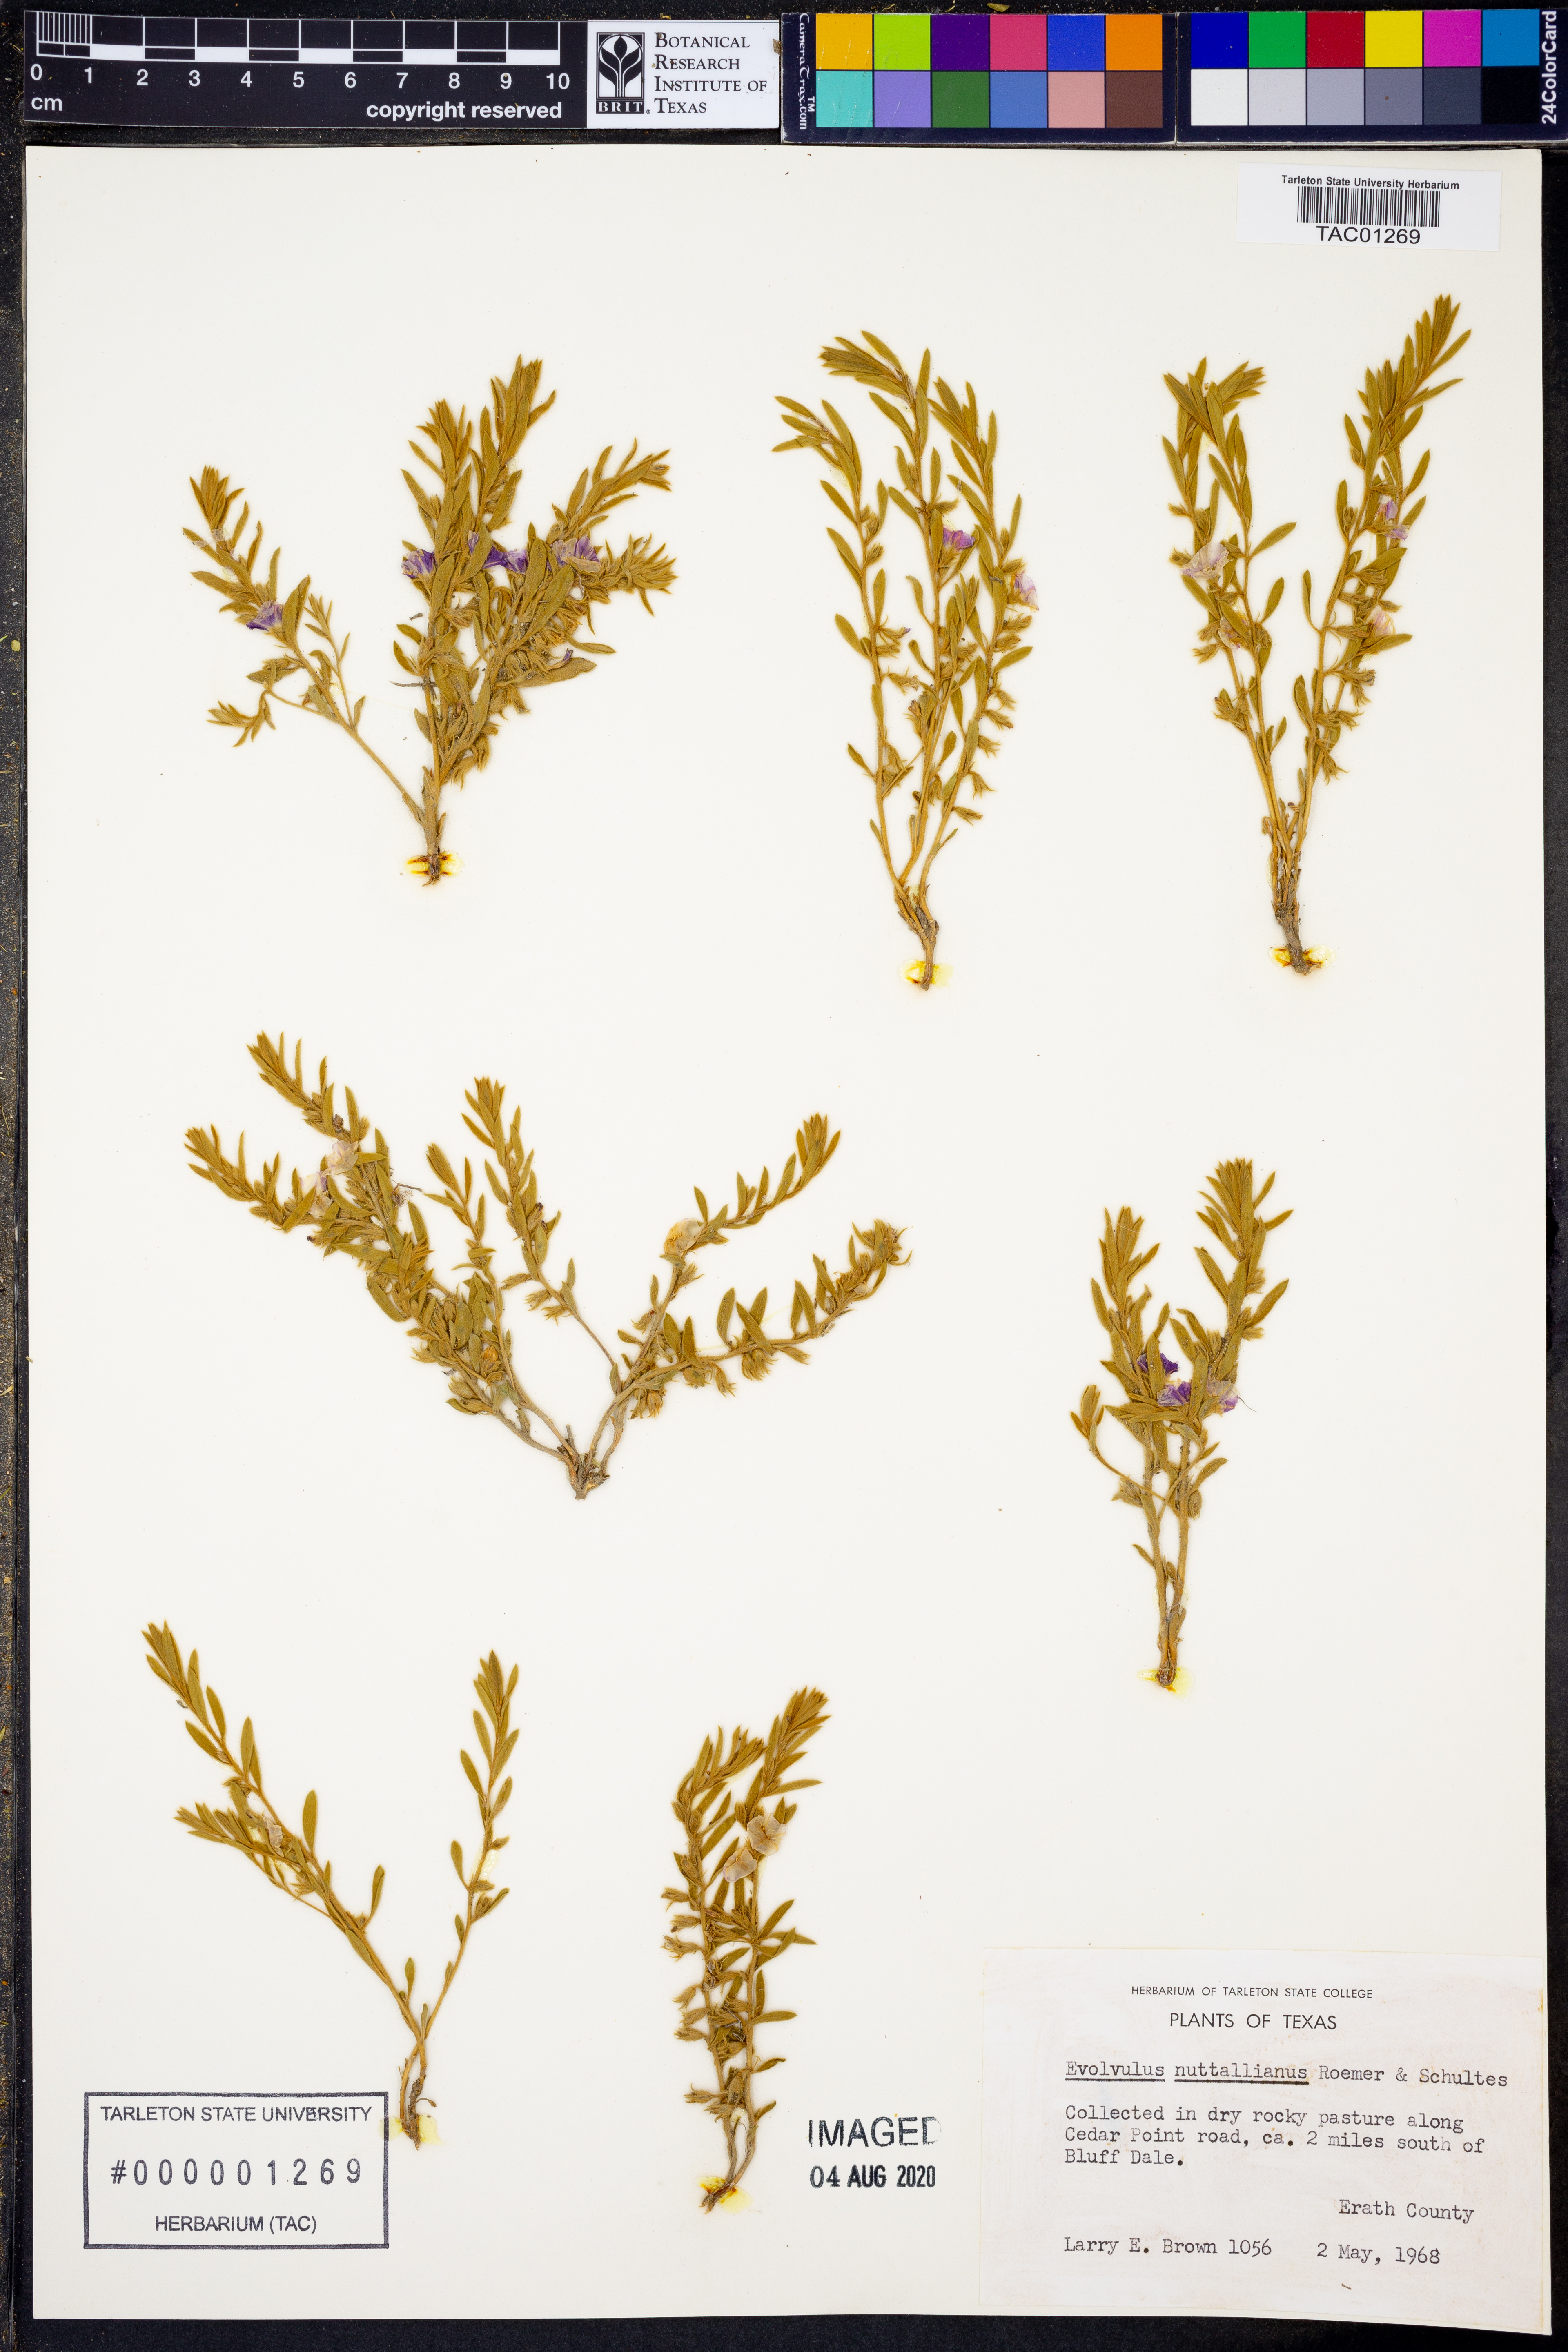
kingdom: Plantae
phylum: Tracheophyta
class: Magnoliopsida
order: Solanales
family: Convolvulaceae
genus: Evolvulus
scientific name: Evolvulus nuttallianus
